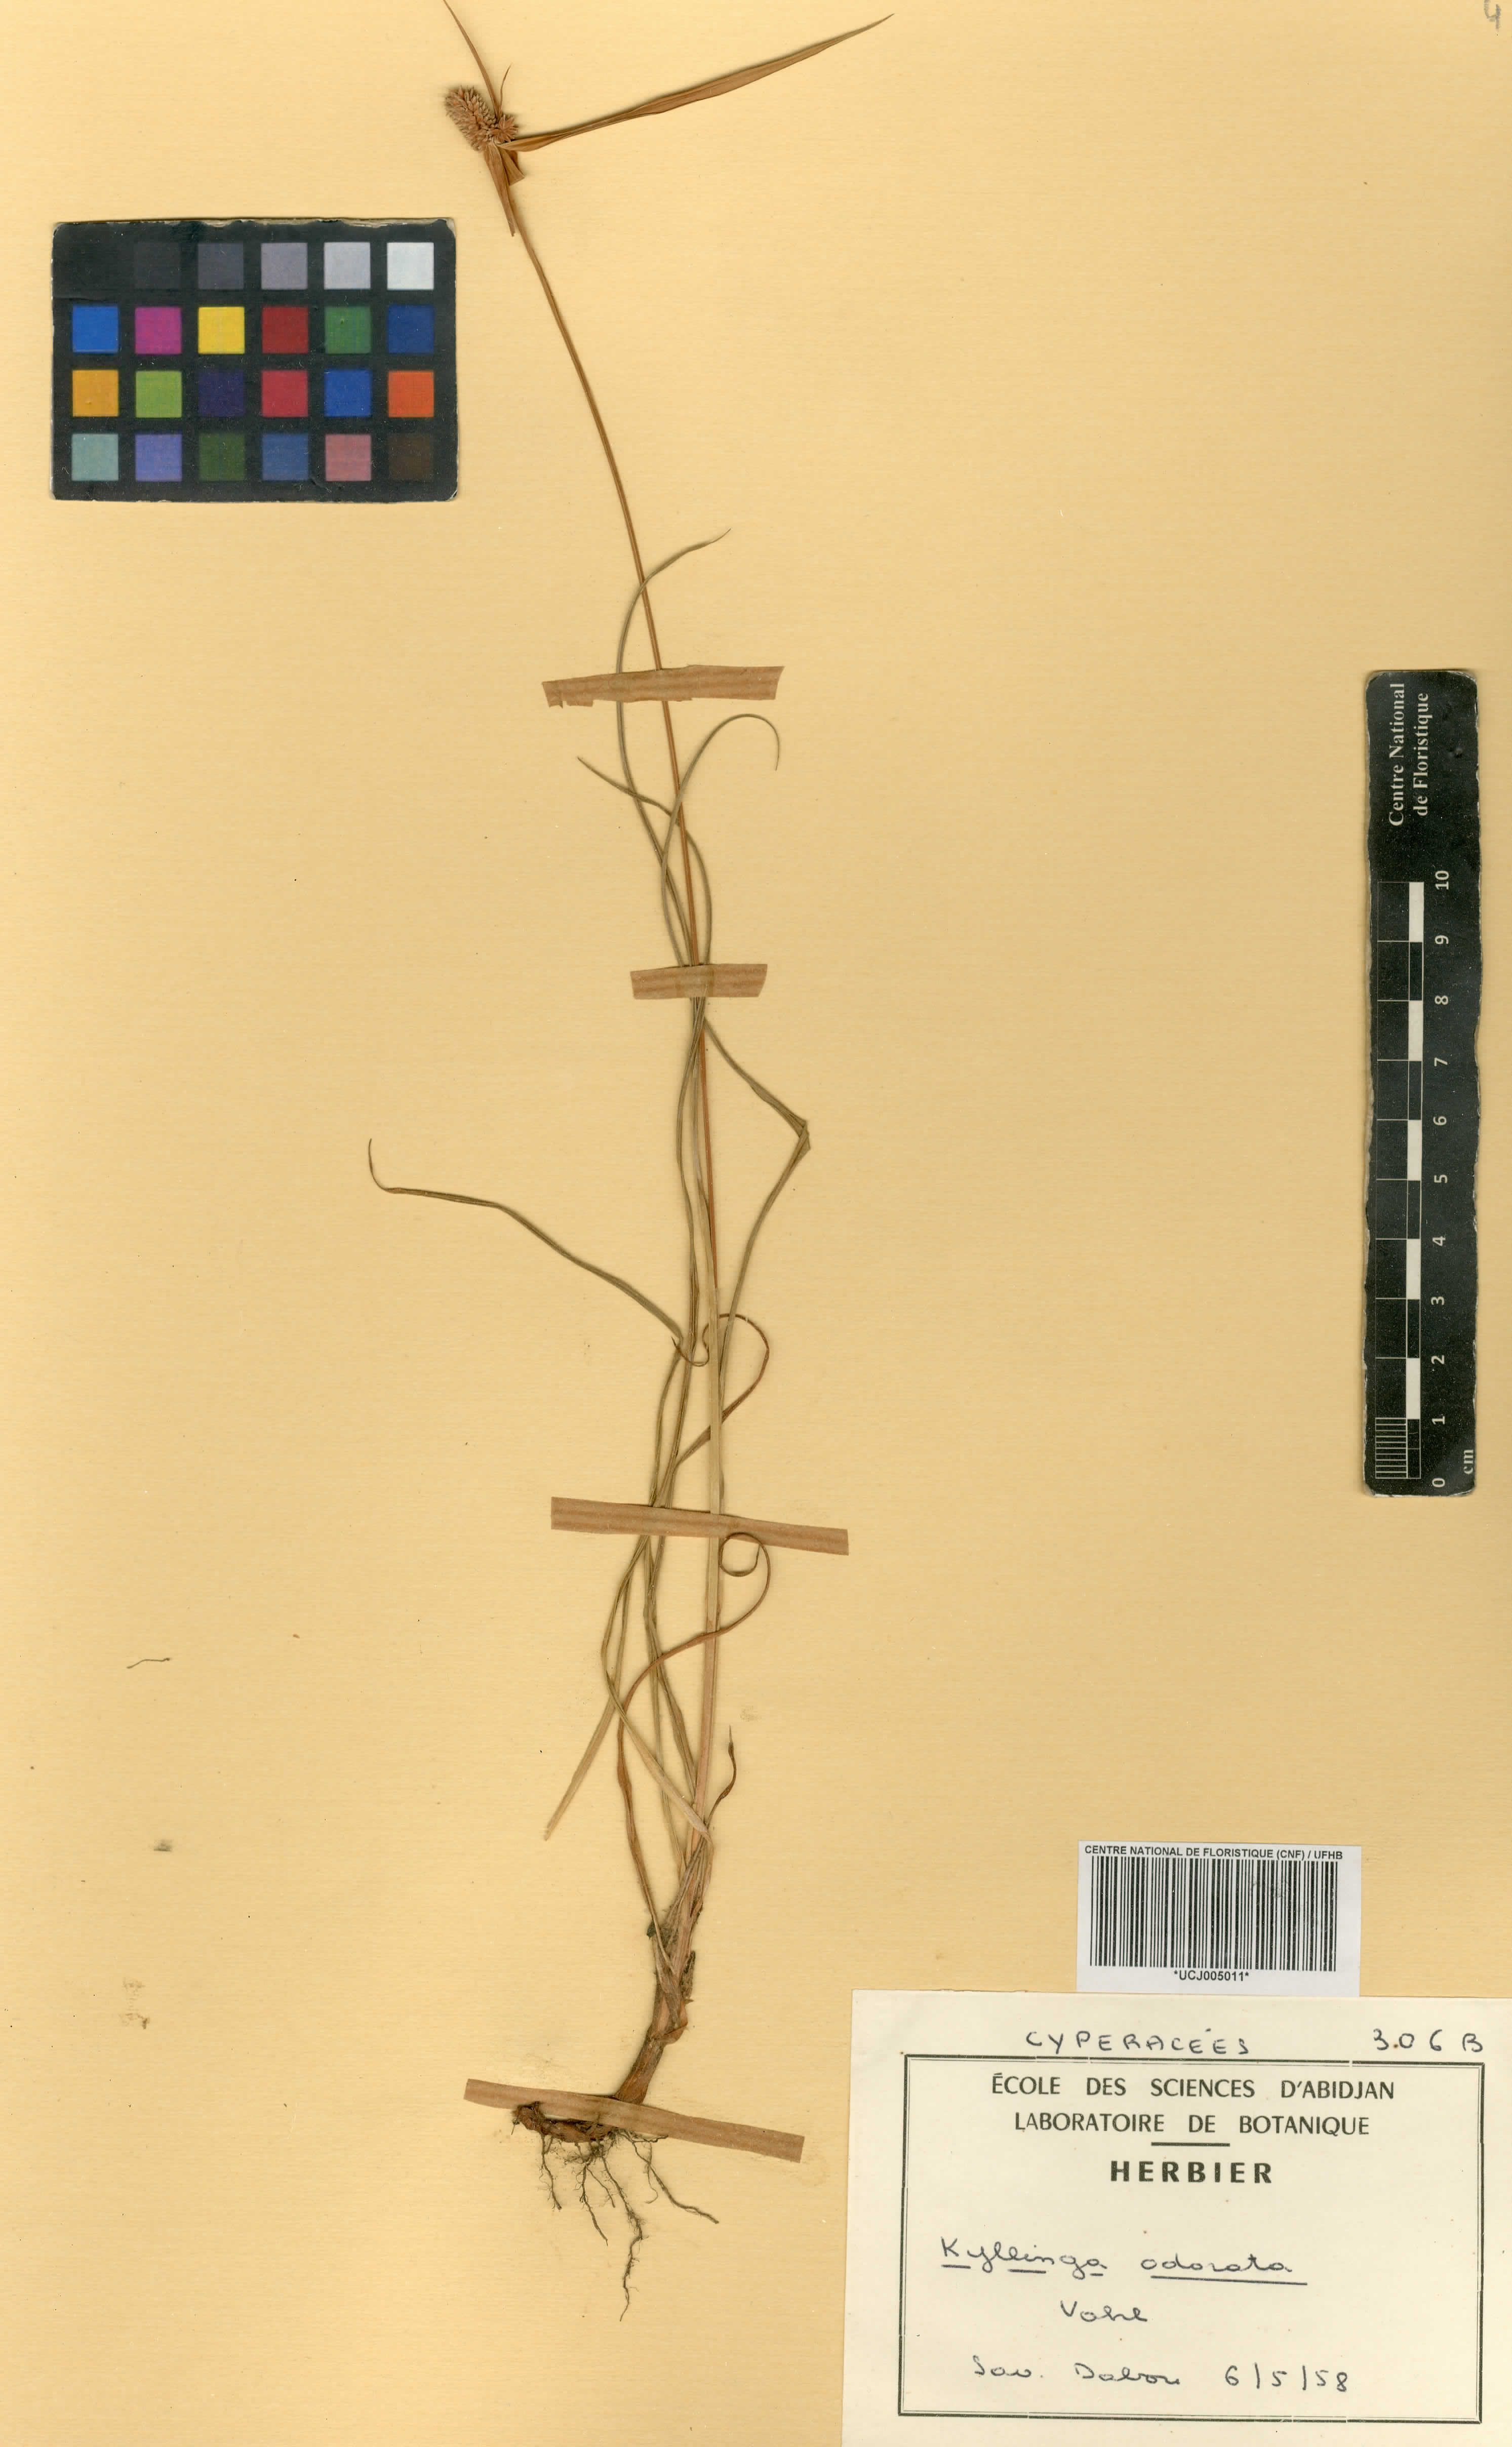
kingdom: Plantae
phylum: Tracheophyta
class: Liliopsida
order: Poales
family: Cyperaceae
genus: Cyperus
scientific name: Cyperus sesquiflorus
